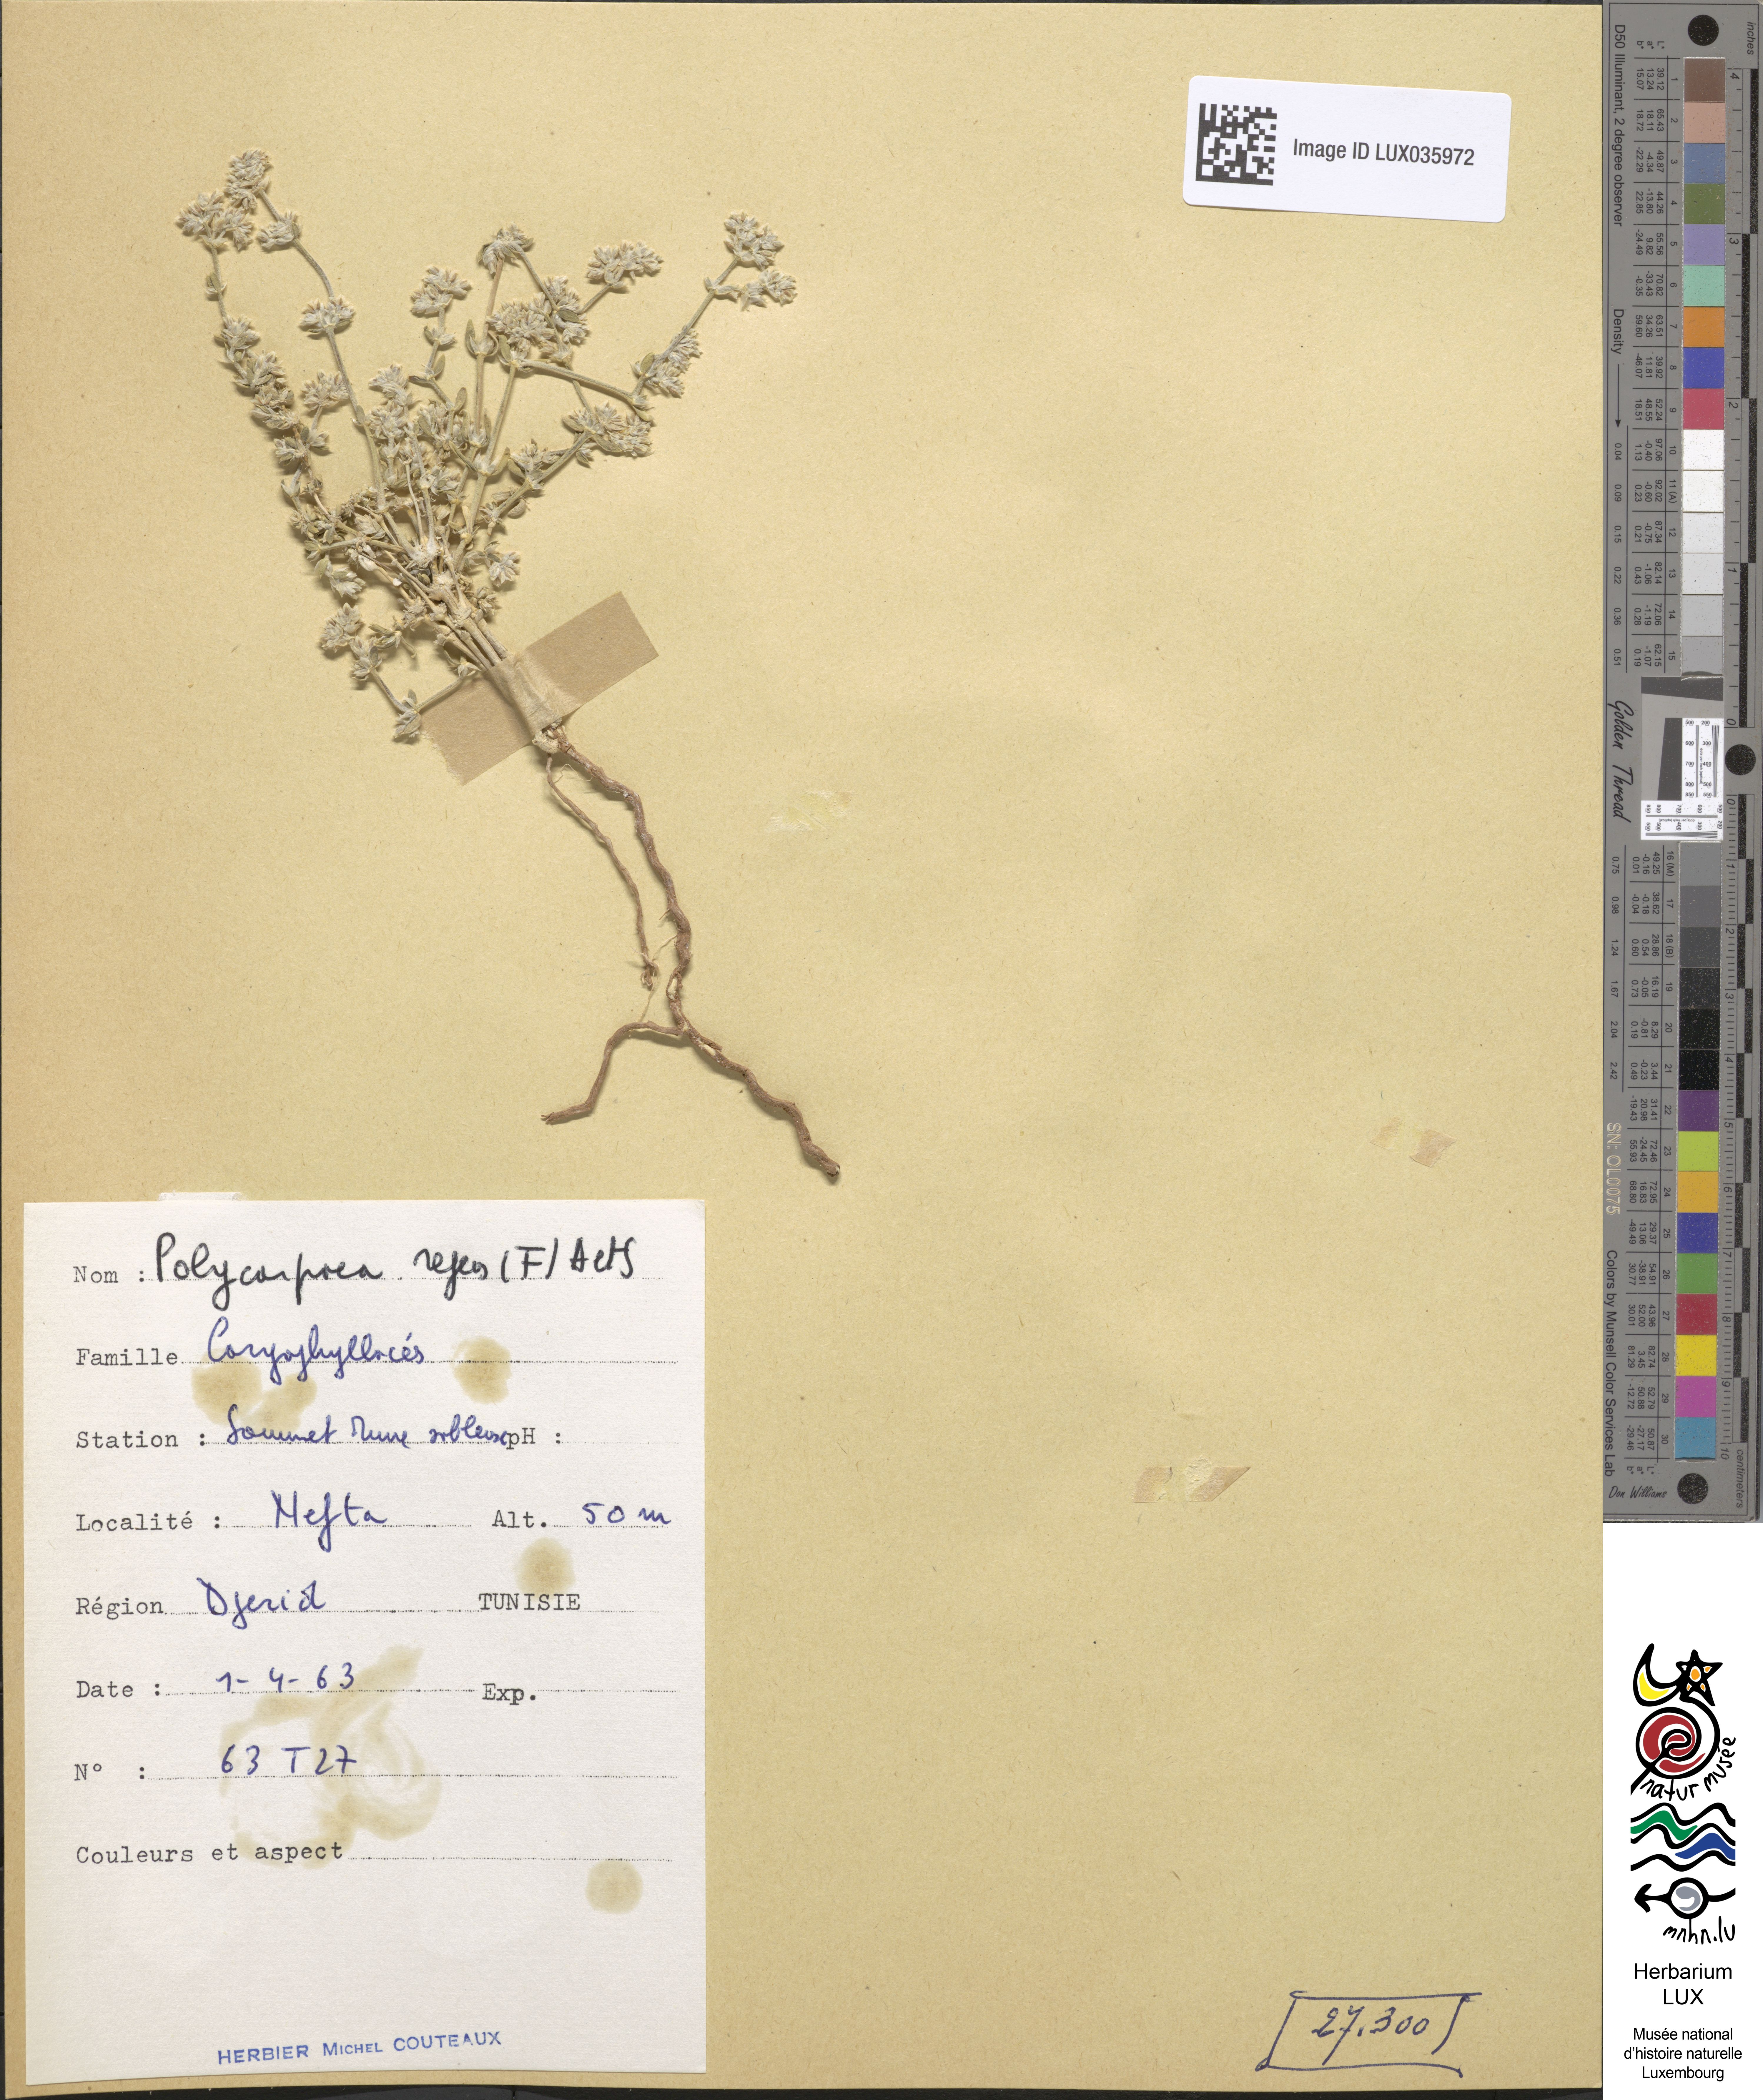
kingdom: Plantae
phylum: Tracheophyta
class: Magnoliopsida
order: Caryophyllales
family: Caryophyllaceae
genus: Polycarpaea
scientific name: Polycarpaea repens
